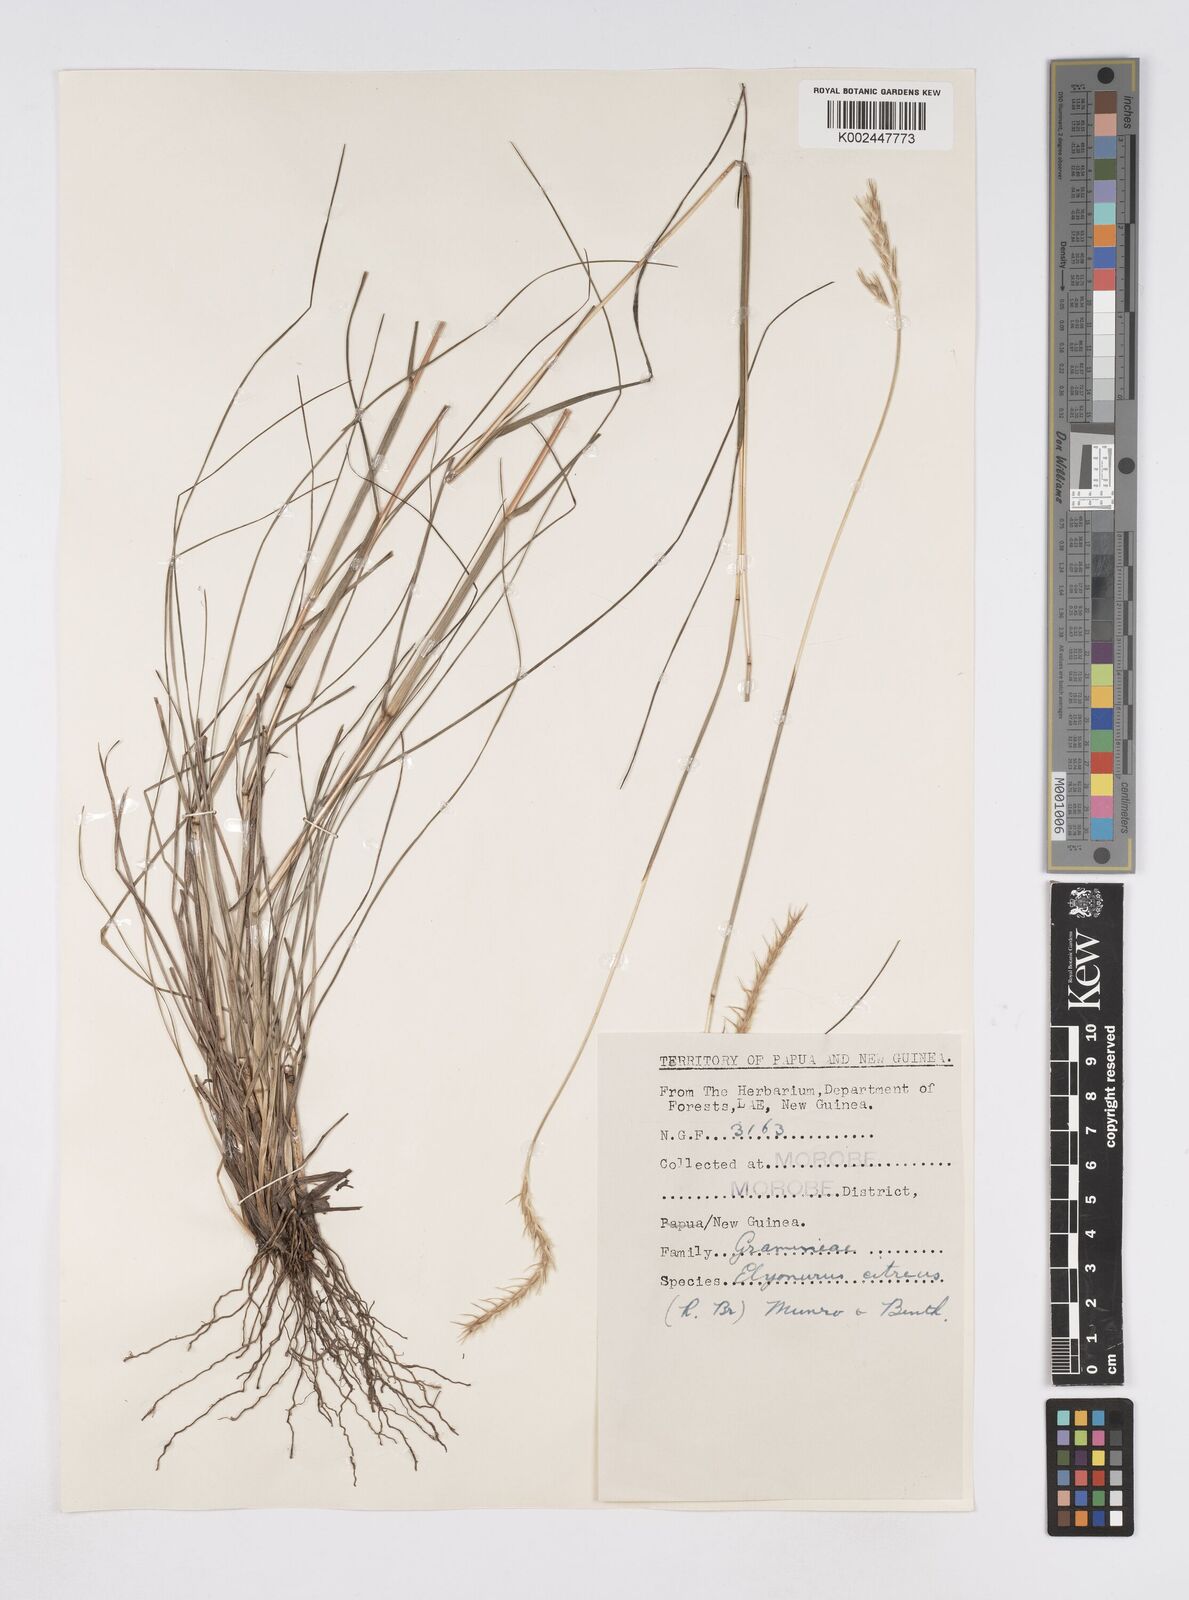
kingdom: Plantae
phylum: Tracheophyta
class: Liliopsida
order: Poales
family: Poaceae
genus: Elionurus
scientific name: Elionurus citreus
